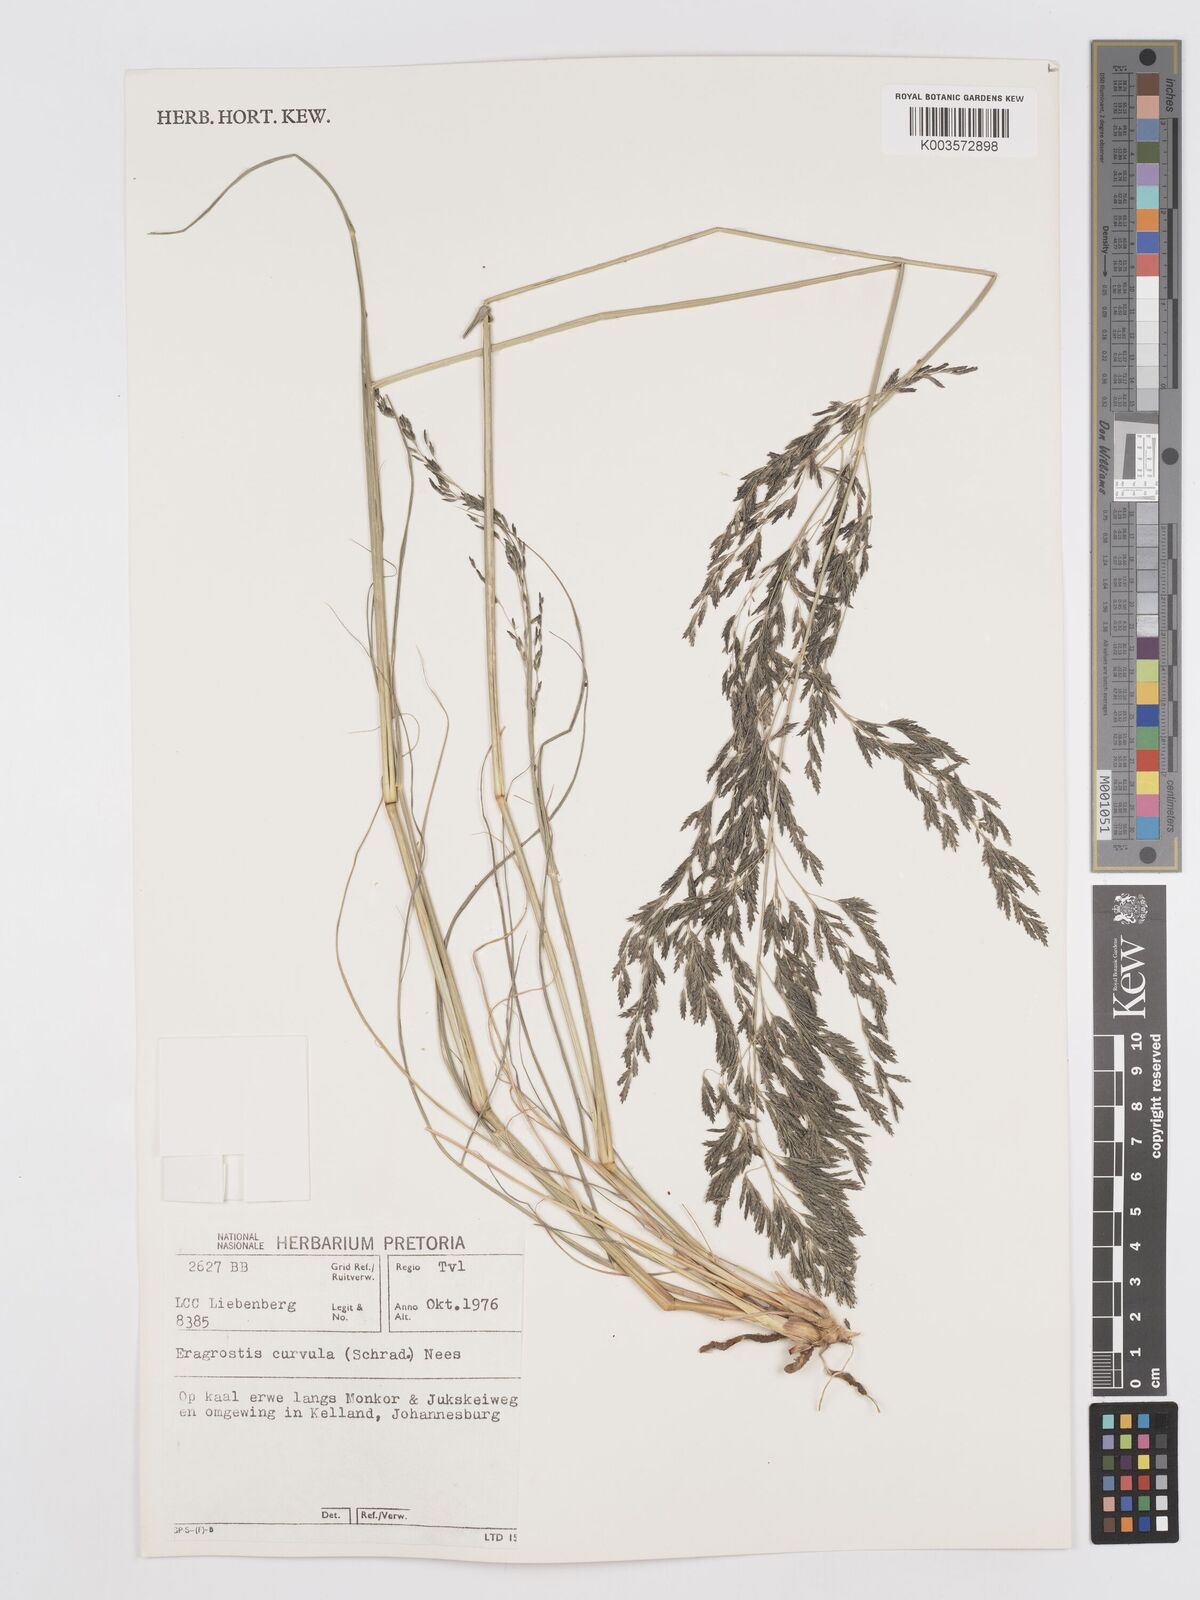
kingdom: Plantae
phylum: Tracheophyta
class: Liliopsida
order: Poales
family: Poaceae
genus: Eragrostis
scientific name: Eragrostis curvula
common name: African love-grass
